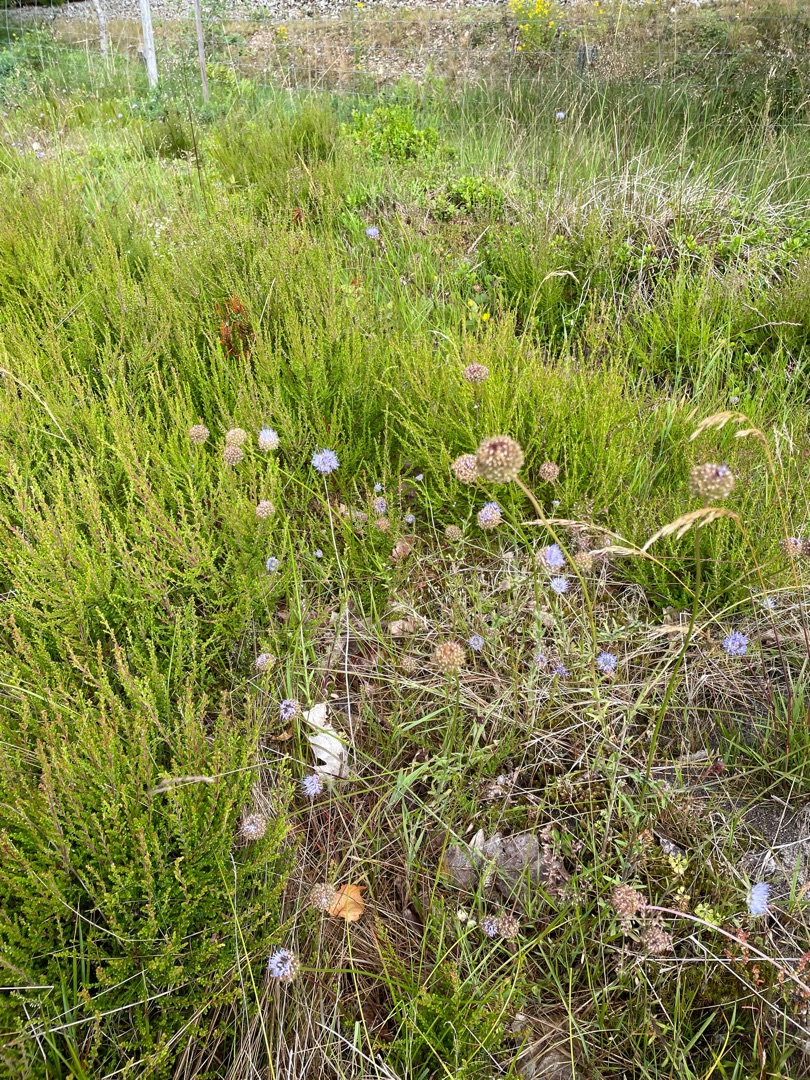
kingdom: Plantae
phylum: Tracheophyta
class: Magnoliopsida
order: Asterales
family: Campanulaceae
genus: Jasione
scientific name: Jasione montana
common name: Blåmunke
